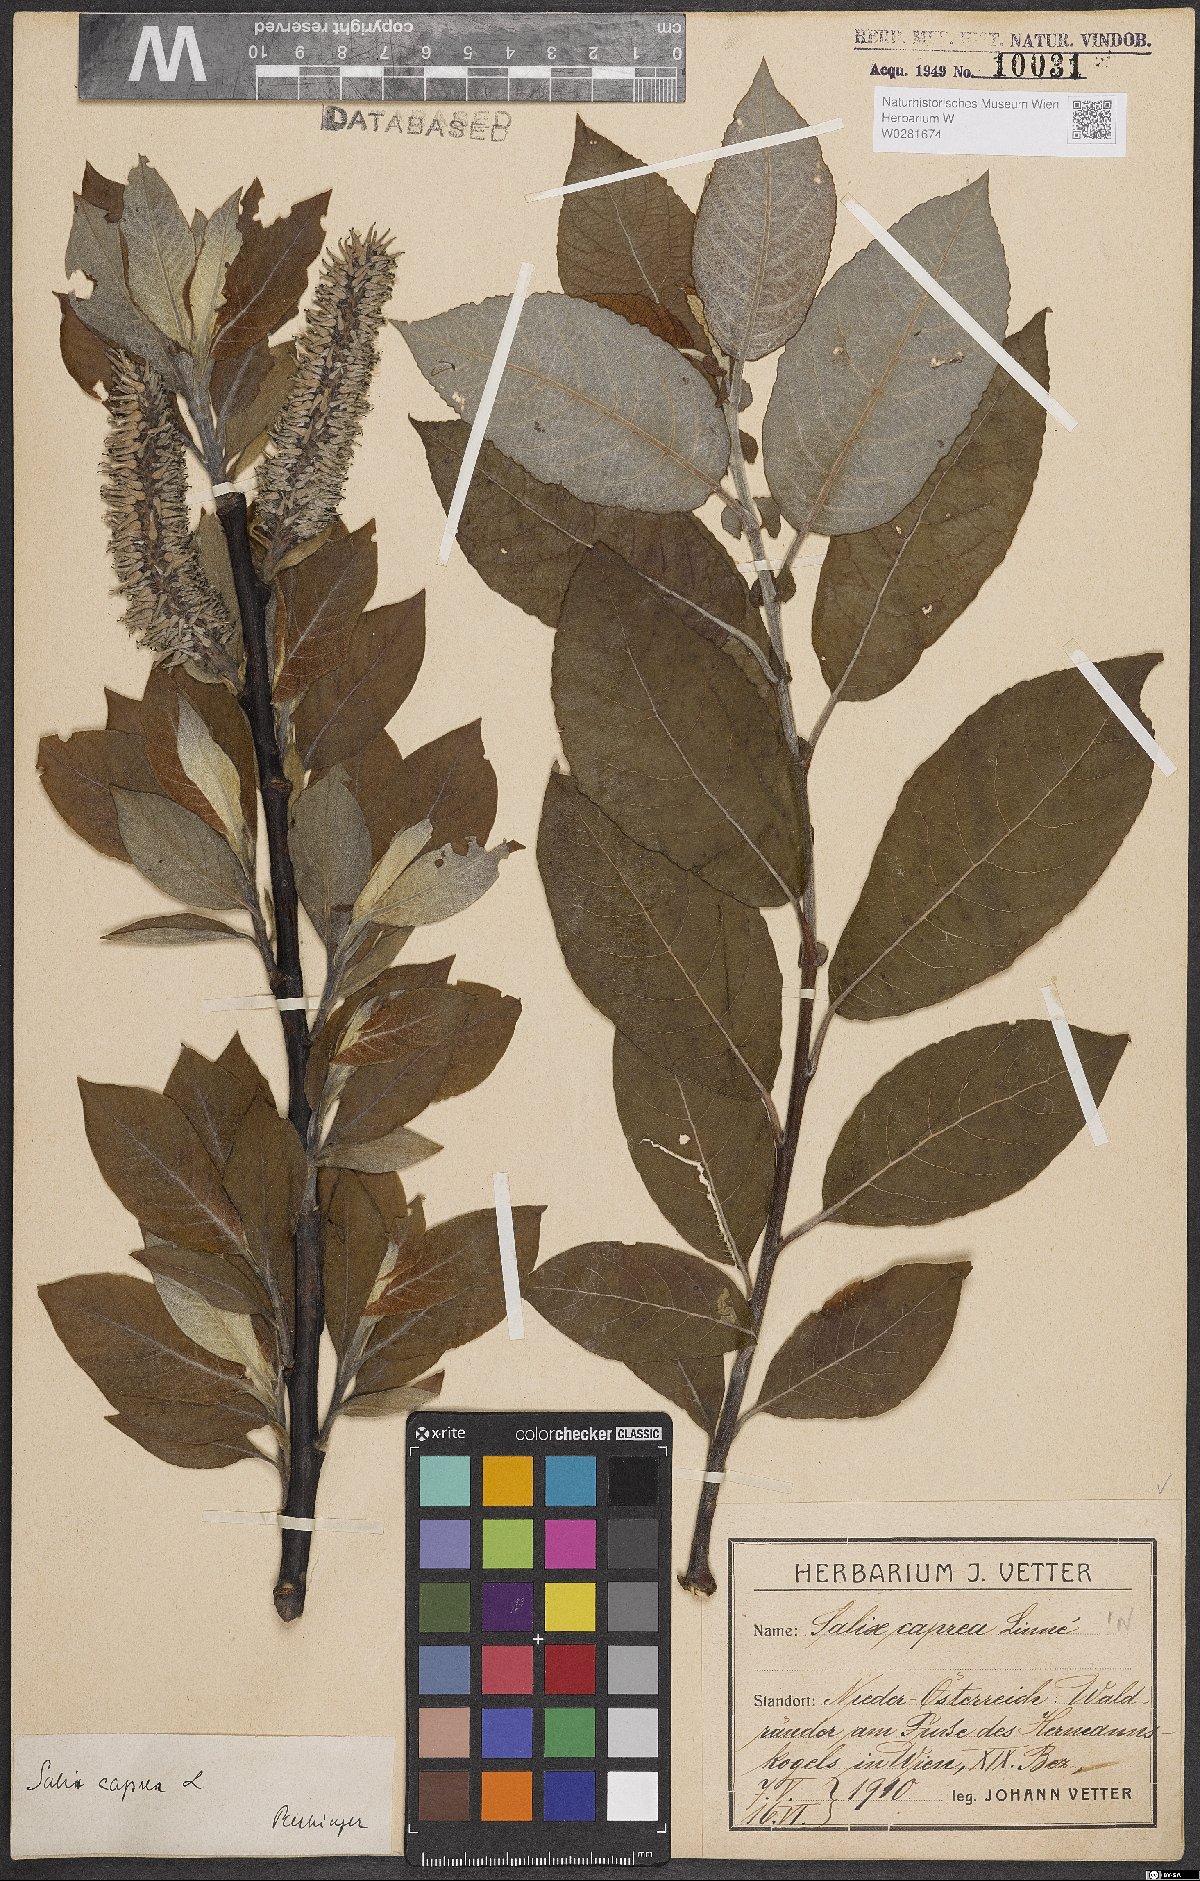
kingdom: Plantae
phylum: Tracheophyta
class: Magnoliopsida
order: Malpighiales
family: Salicaceae
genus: Salix
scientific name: Salix caprea
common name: Goat willow
